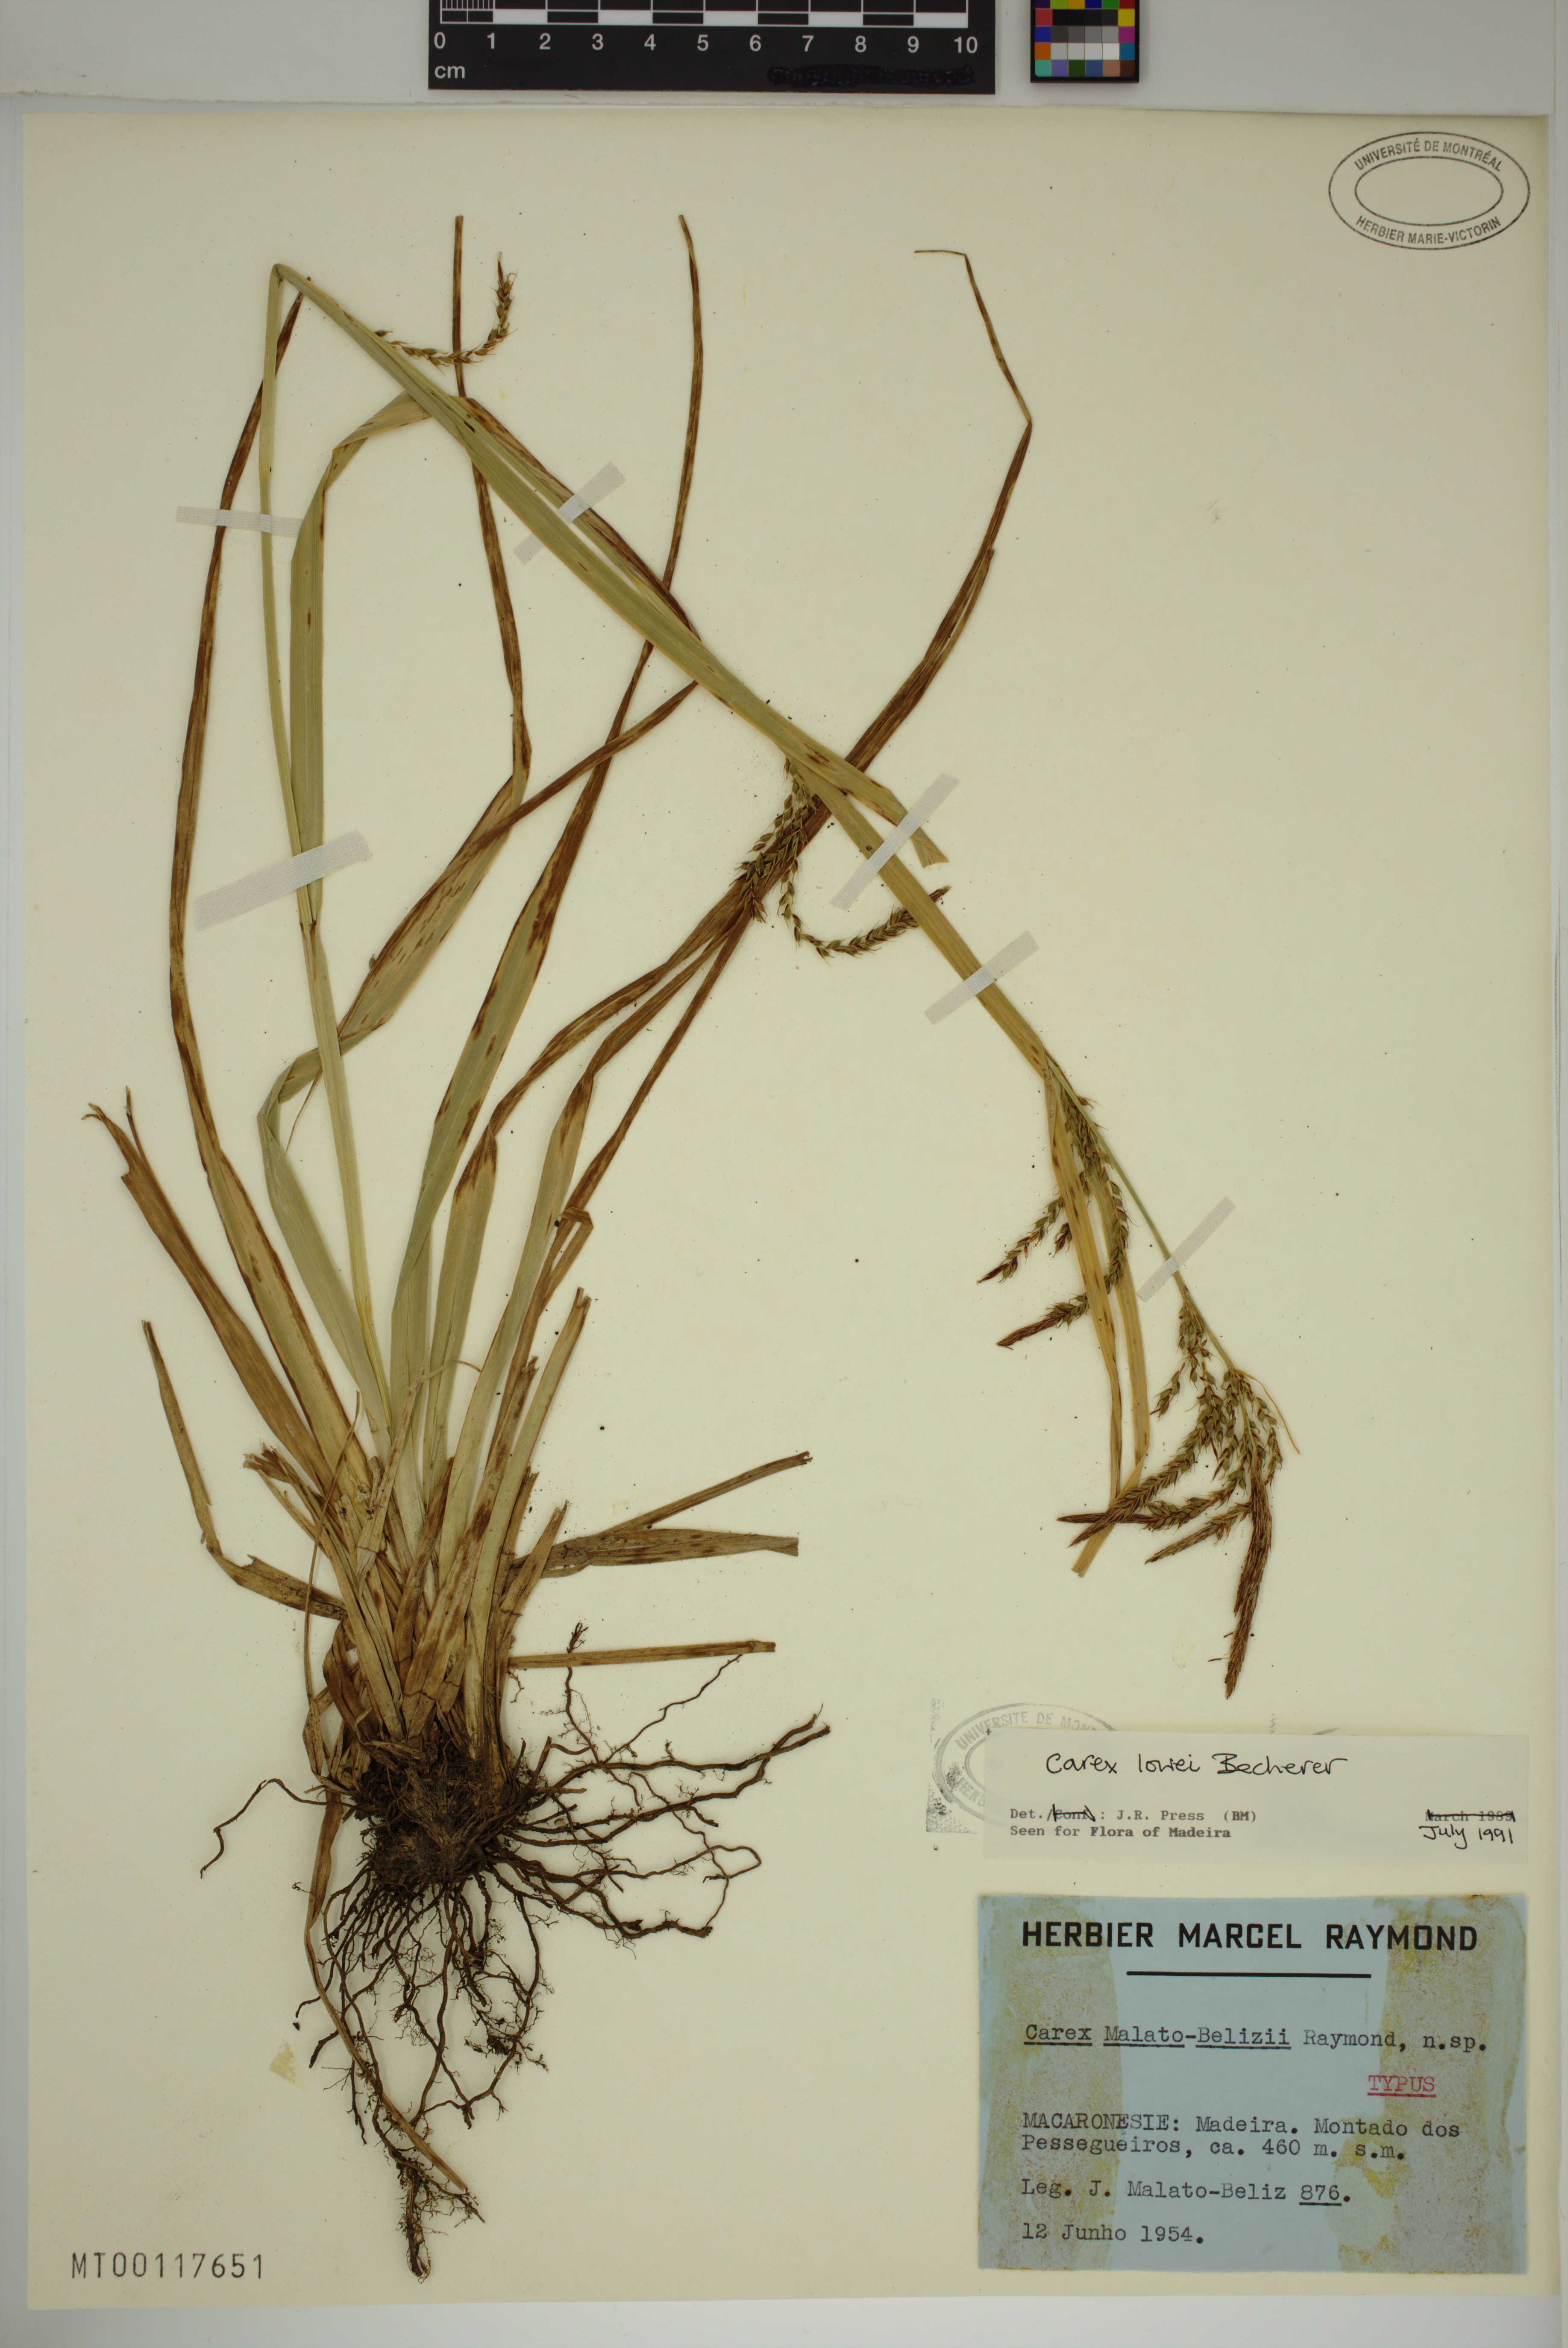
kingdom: Plantae
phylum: Tracheophyta
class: Liliopsida
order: Poales
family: Cyperaceae
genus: Carex
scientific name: Carex lowei
